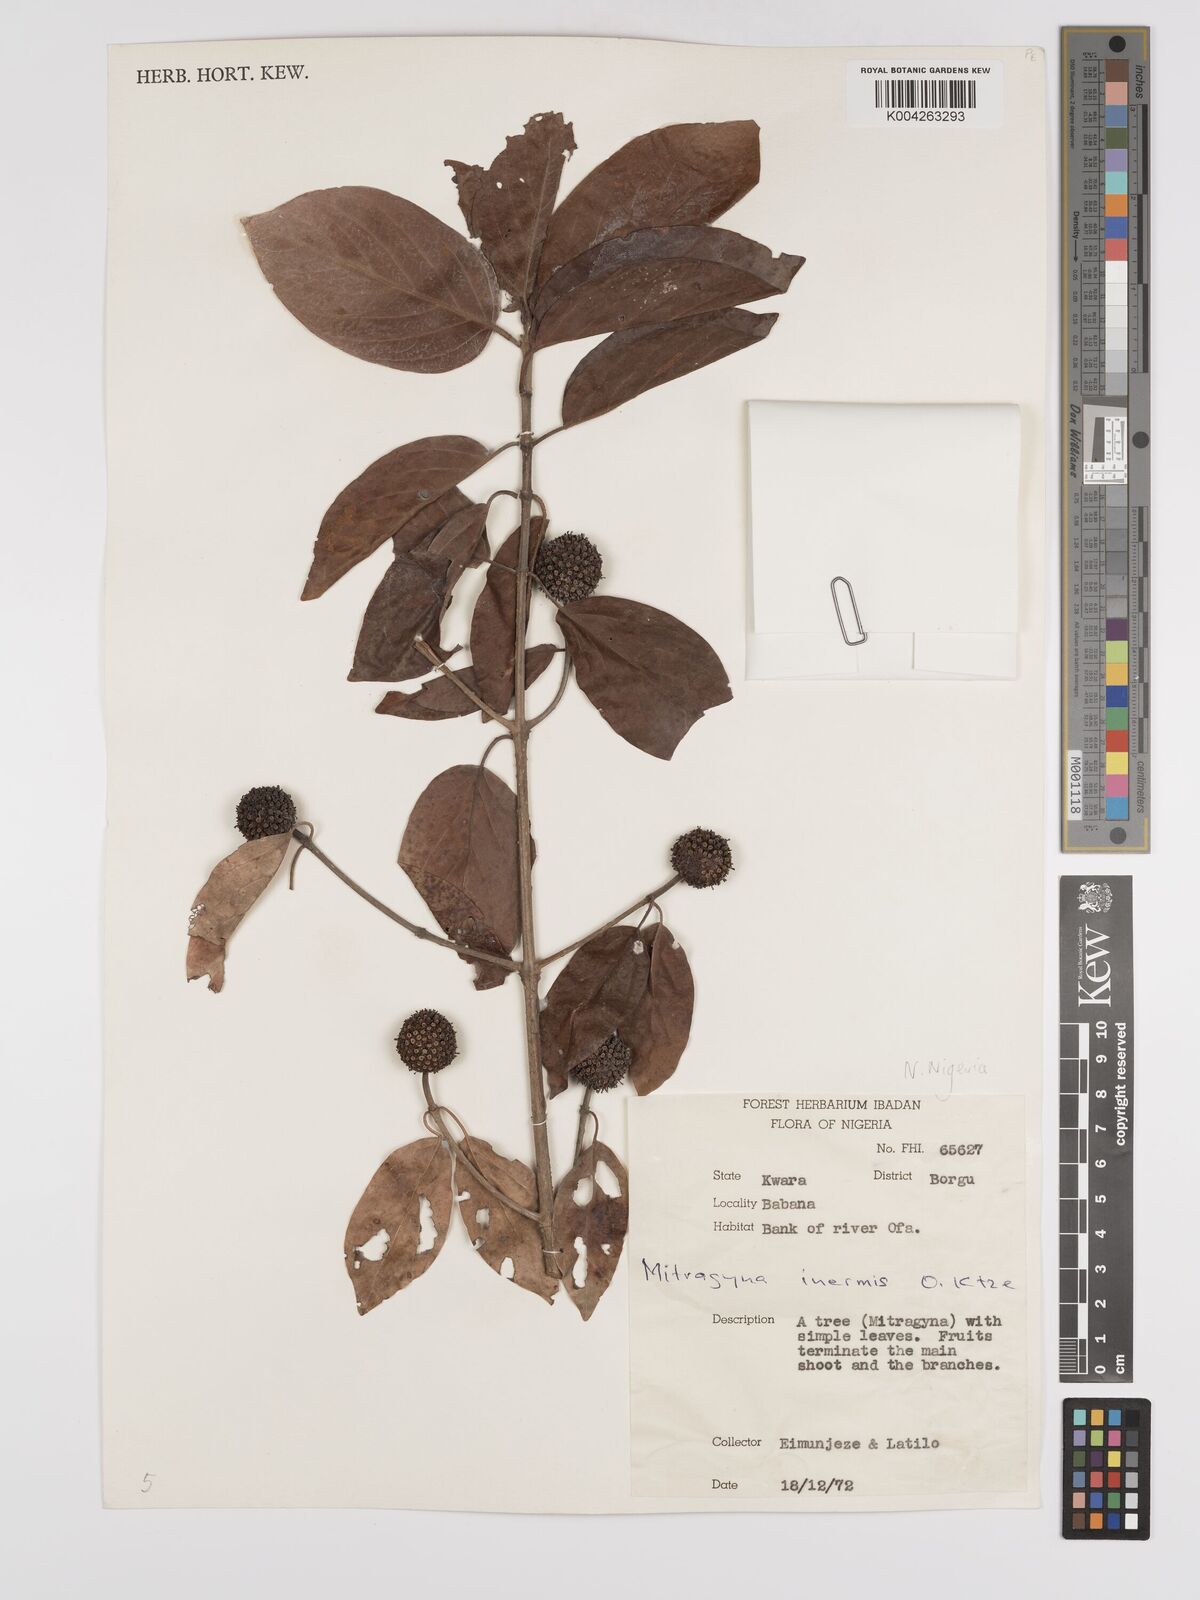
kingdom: Plantae
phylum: Tracheophyta
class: Magnoliopsida
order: Gentianales
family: Rubiaceae
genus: Mitragyna
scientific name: Mitragyna inermis
